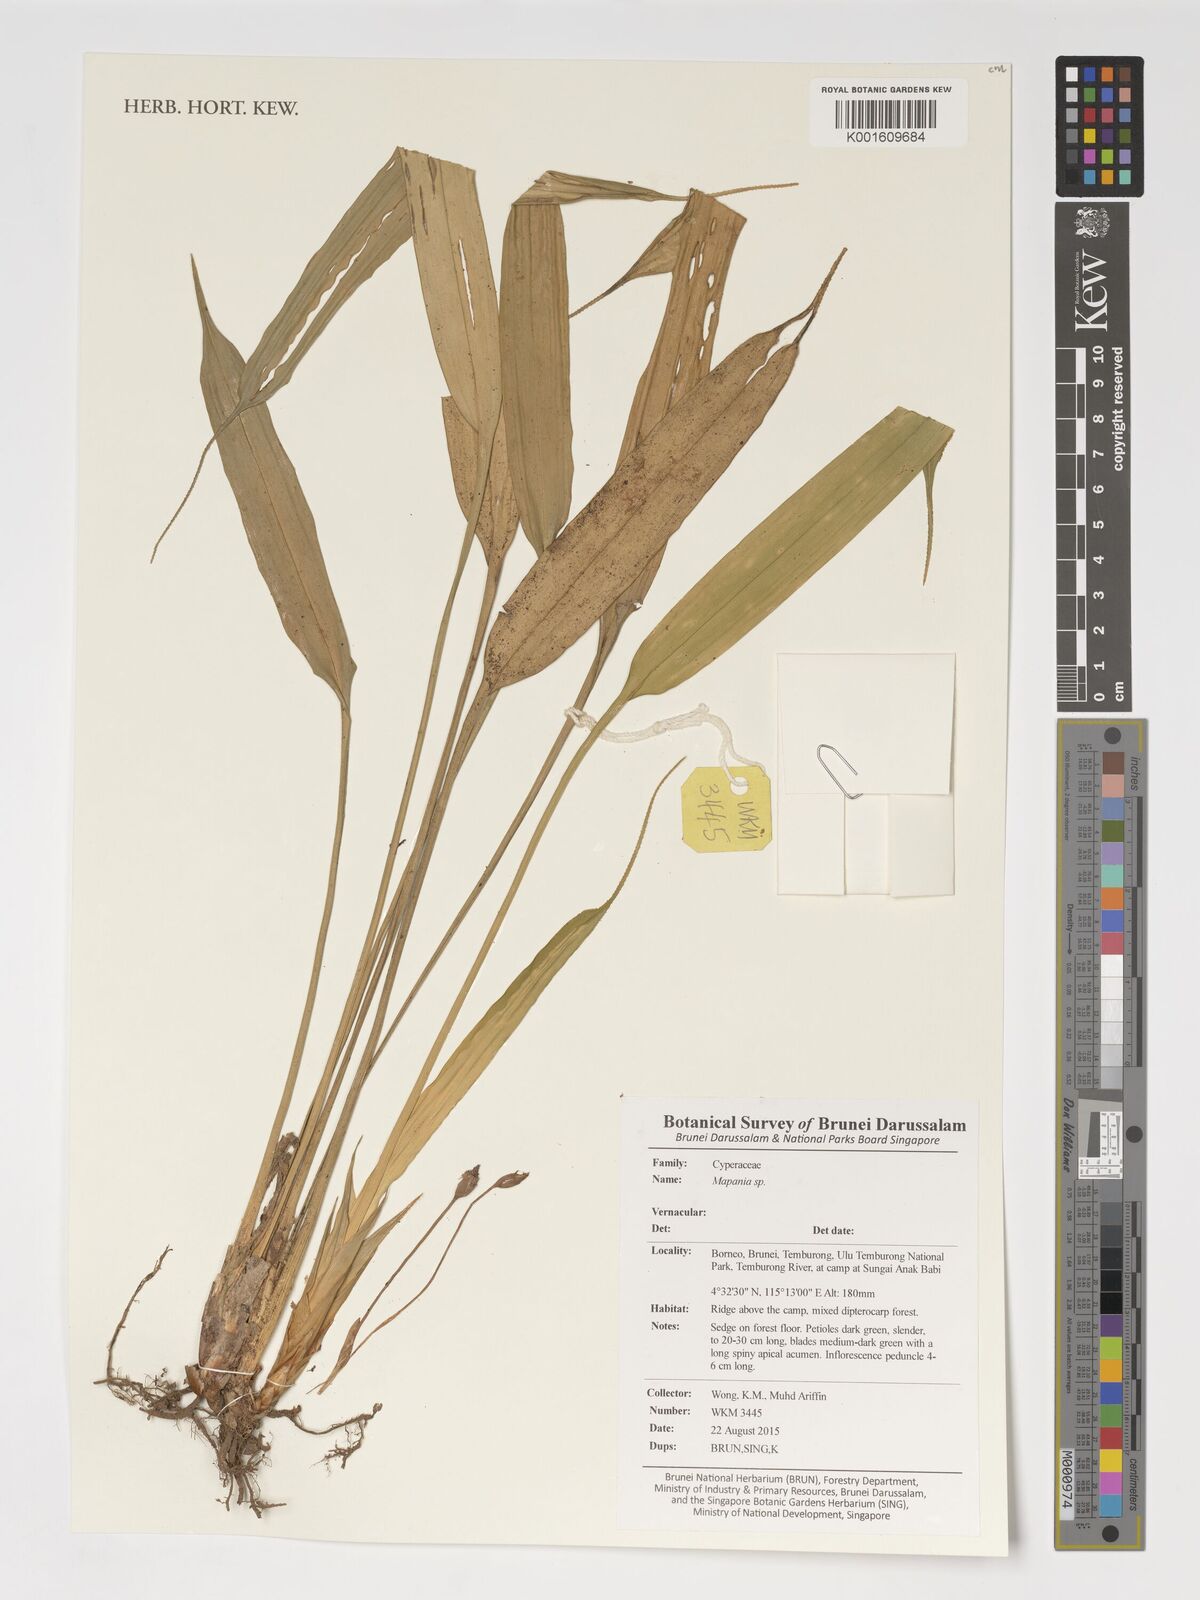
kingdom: Plantae
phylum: Tracheophyta
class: Liliopsida
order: Poales
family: Cyperaceae
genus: Mapania
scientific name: Mapania
